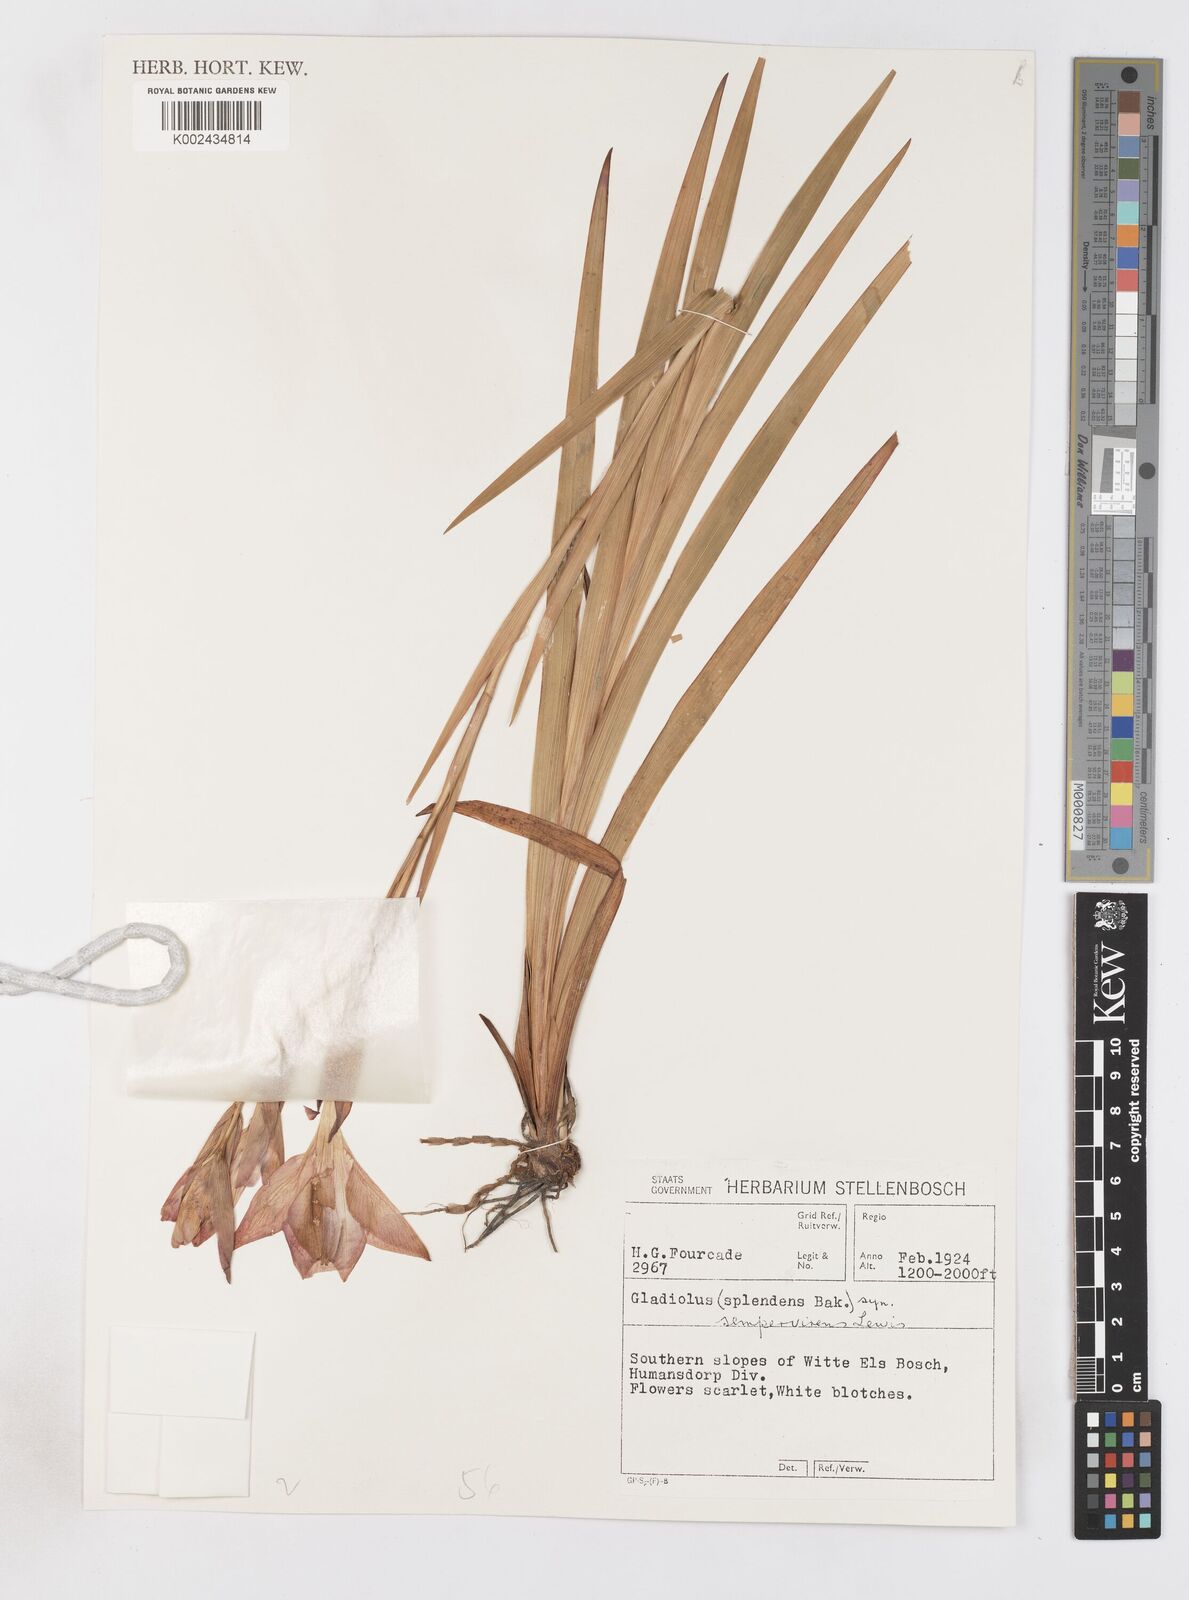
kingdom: Plantae
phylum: Tracheophyta
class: Liliopsida
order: Asparagales
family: Iridaceae
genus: Gladiolus
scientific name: Gladiolus sempervirens
